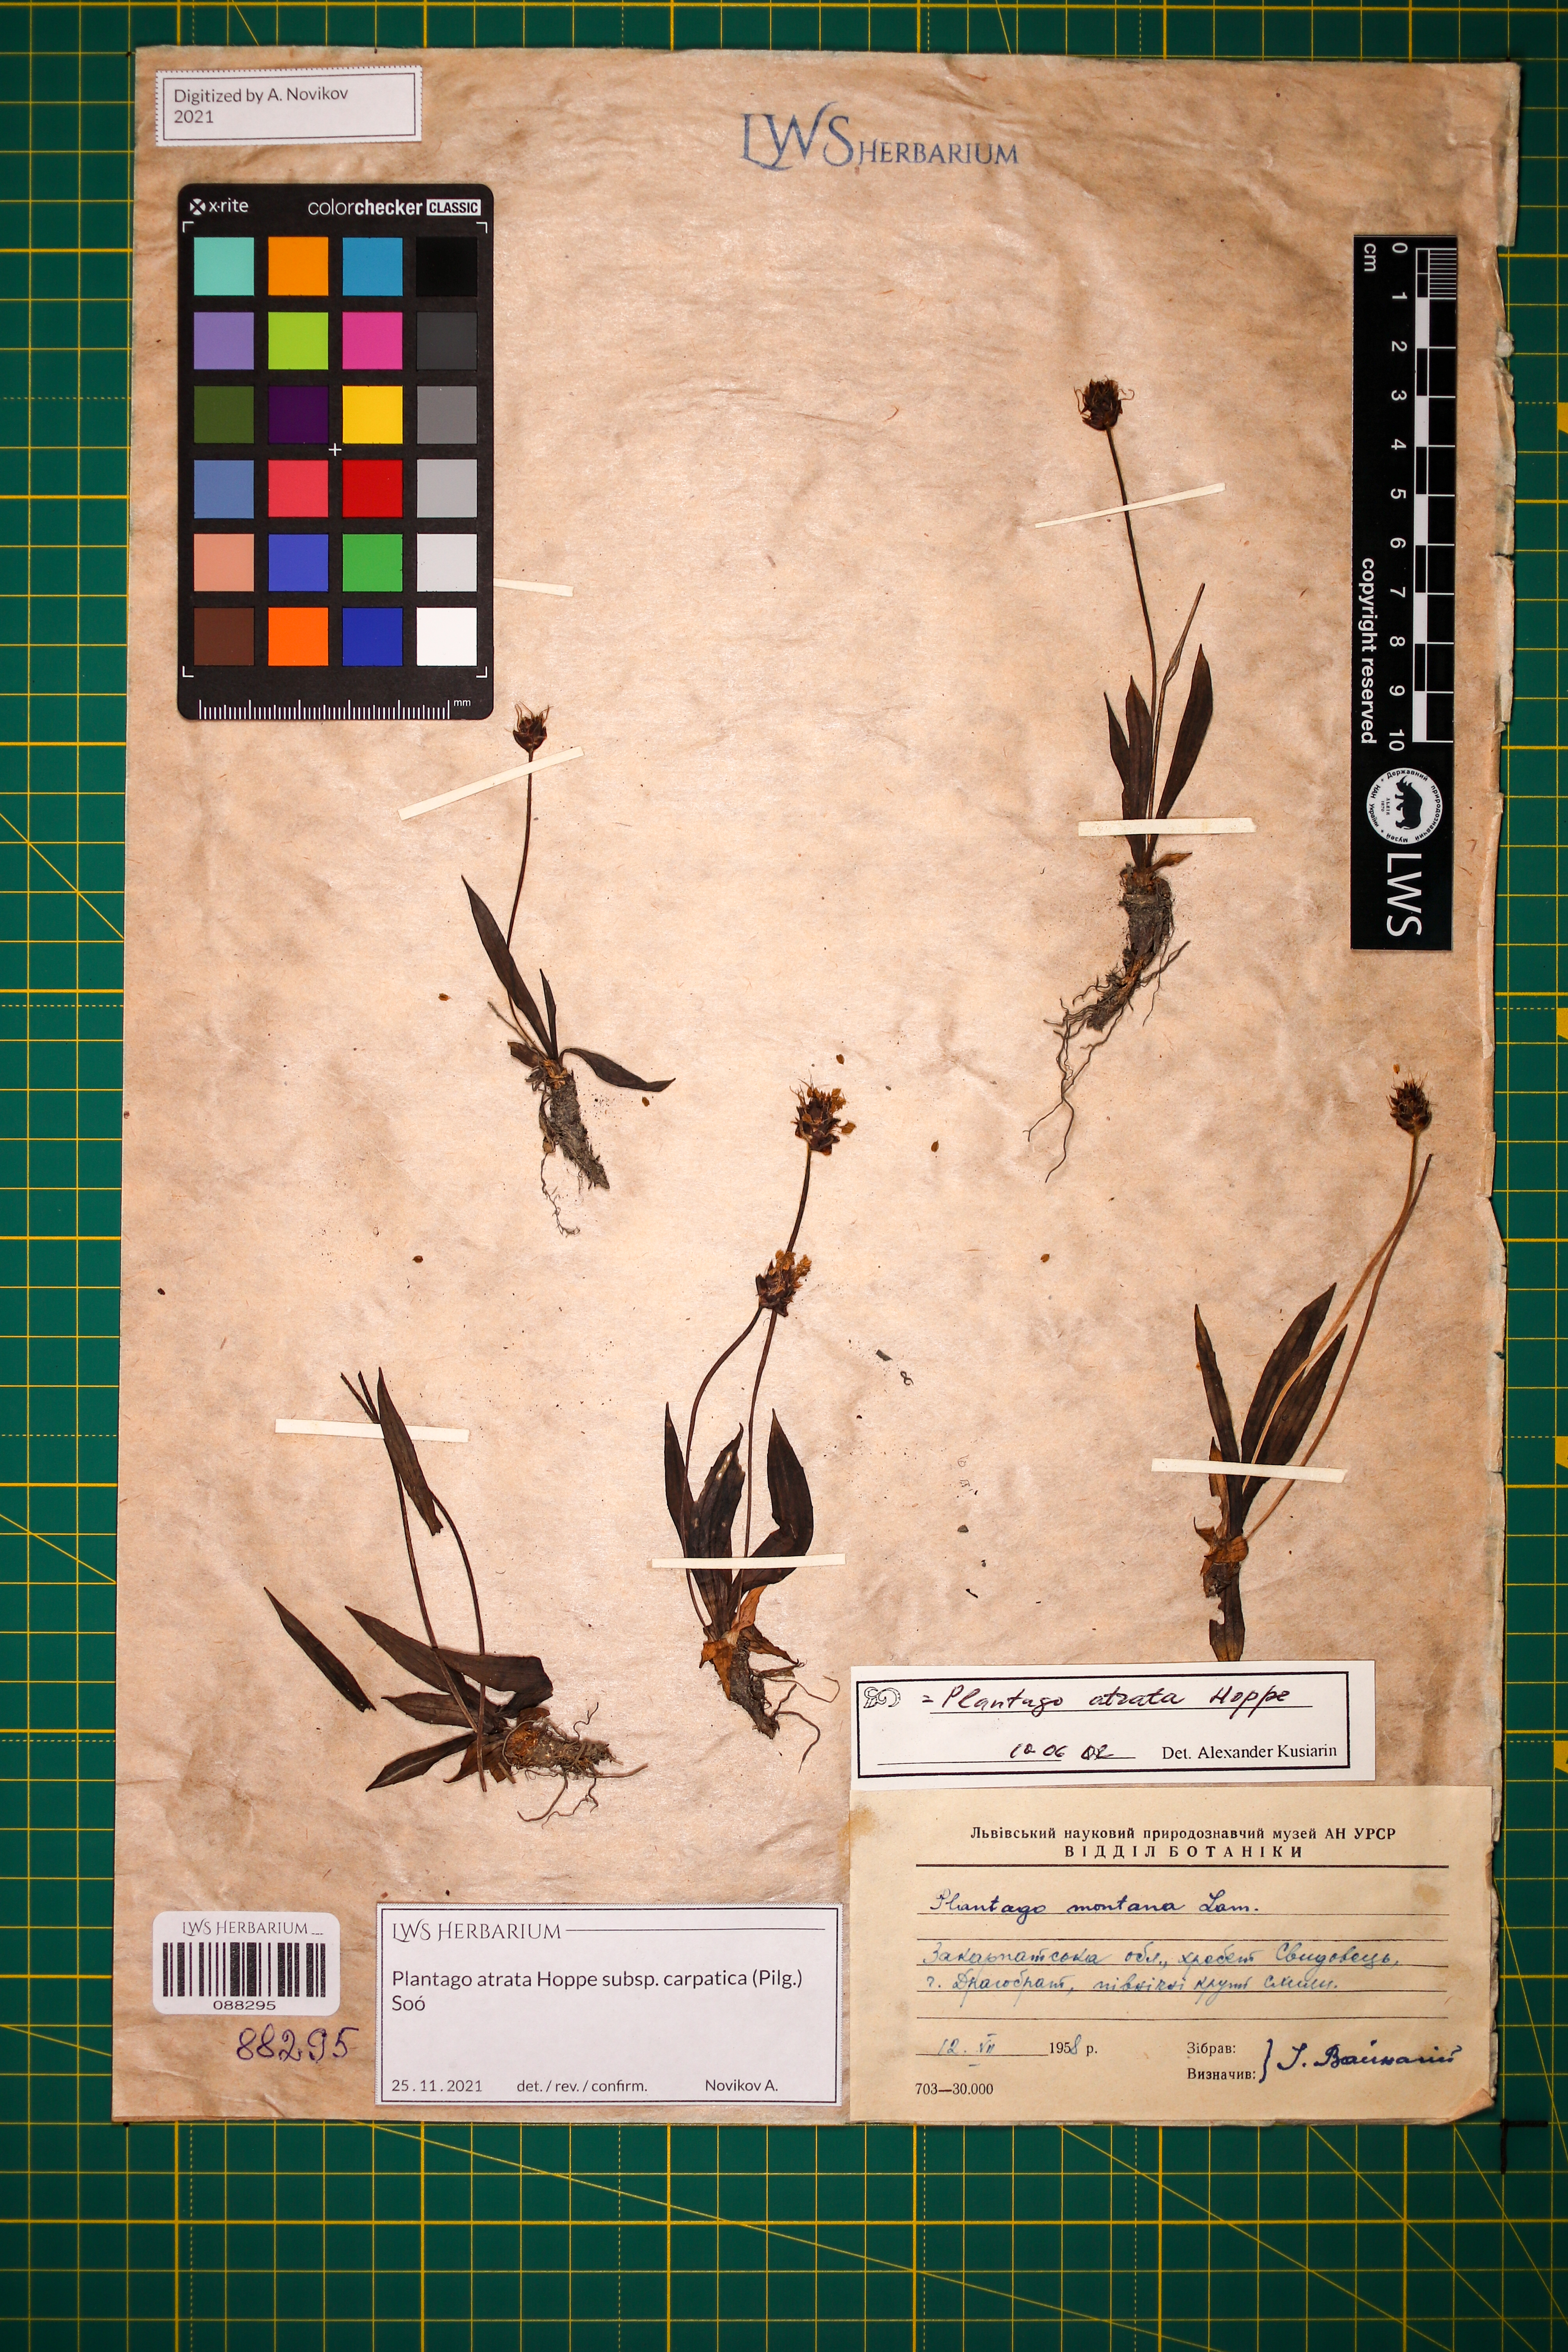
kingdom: Plantae
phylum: Tracheophyta
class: Magnoliopsida
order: Lamiales
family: Plantaginaceae
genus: Plantago
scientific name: Plantago atrata
